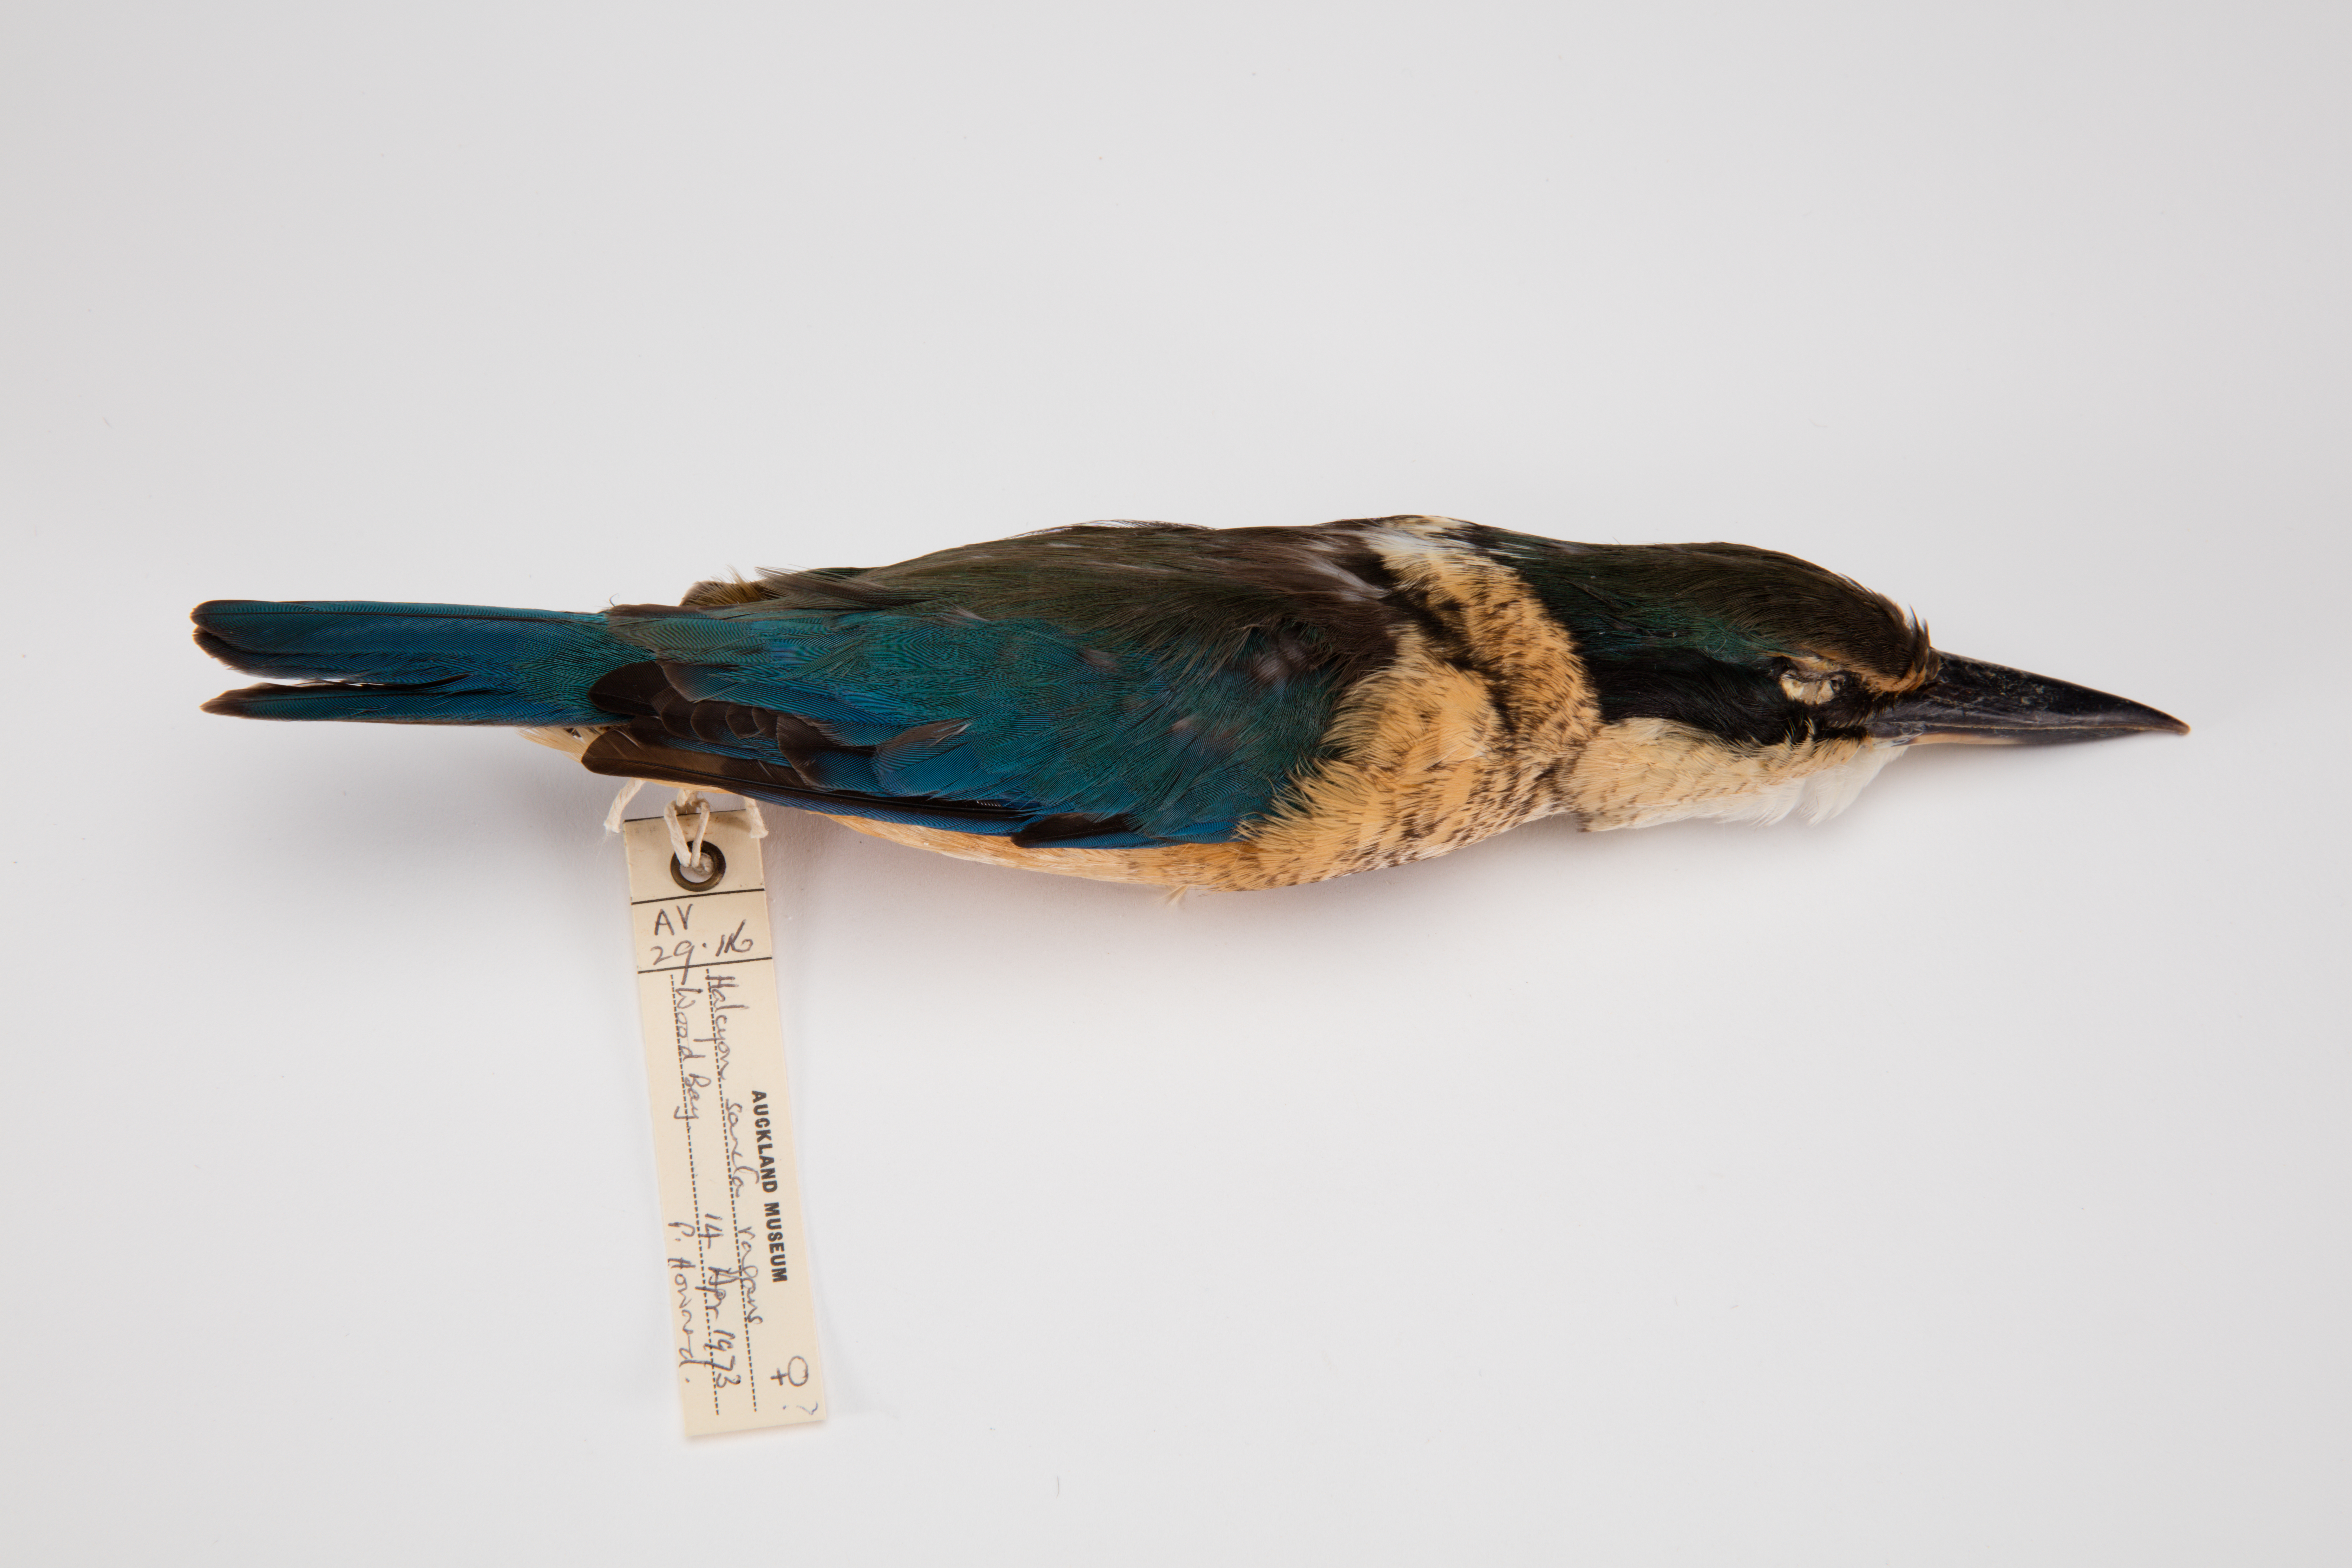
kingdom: Animalia
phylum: Chordata
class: Aves
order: Coraciiformes
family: Alcedinidae
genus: Todiramphus
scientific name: Todiramphus sanctus
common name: Sacred kingfisher
